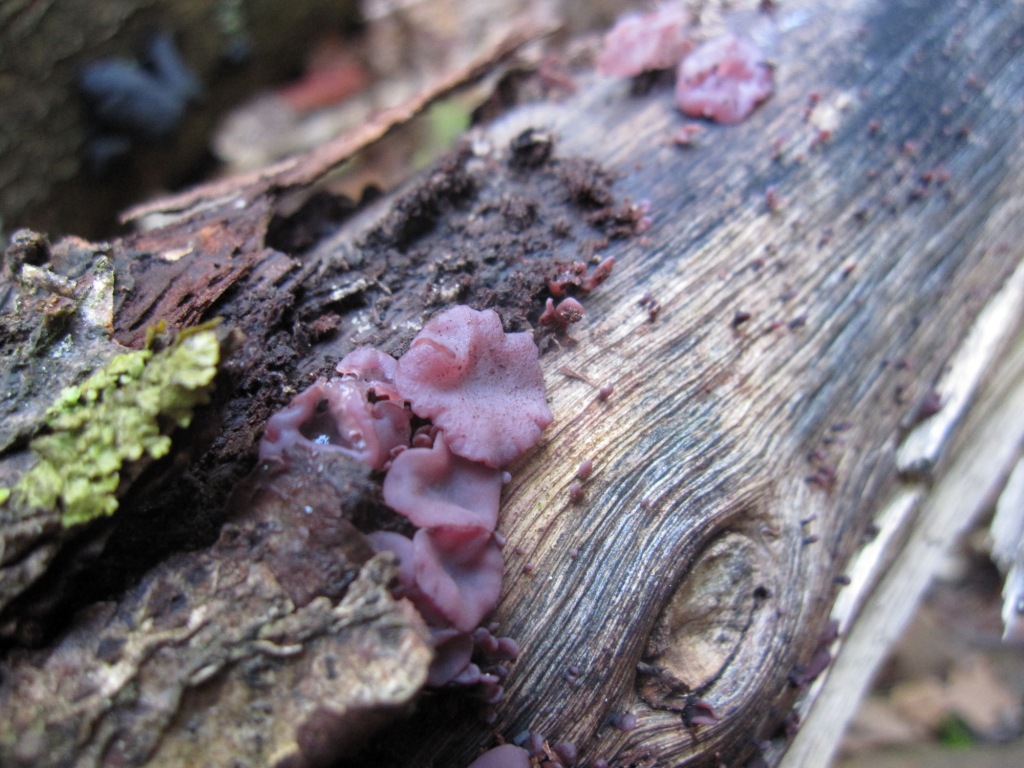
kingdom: Fungi
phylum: Ascomycota
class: Leotiomycetes
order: Helotiales
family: Gelatinodiscaceae
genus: Ascocoryne
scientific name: Ascocoryne sarcoides
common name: rødlilla sejskive
